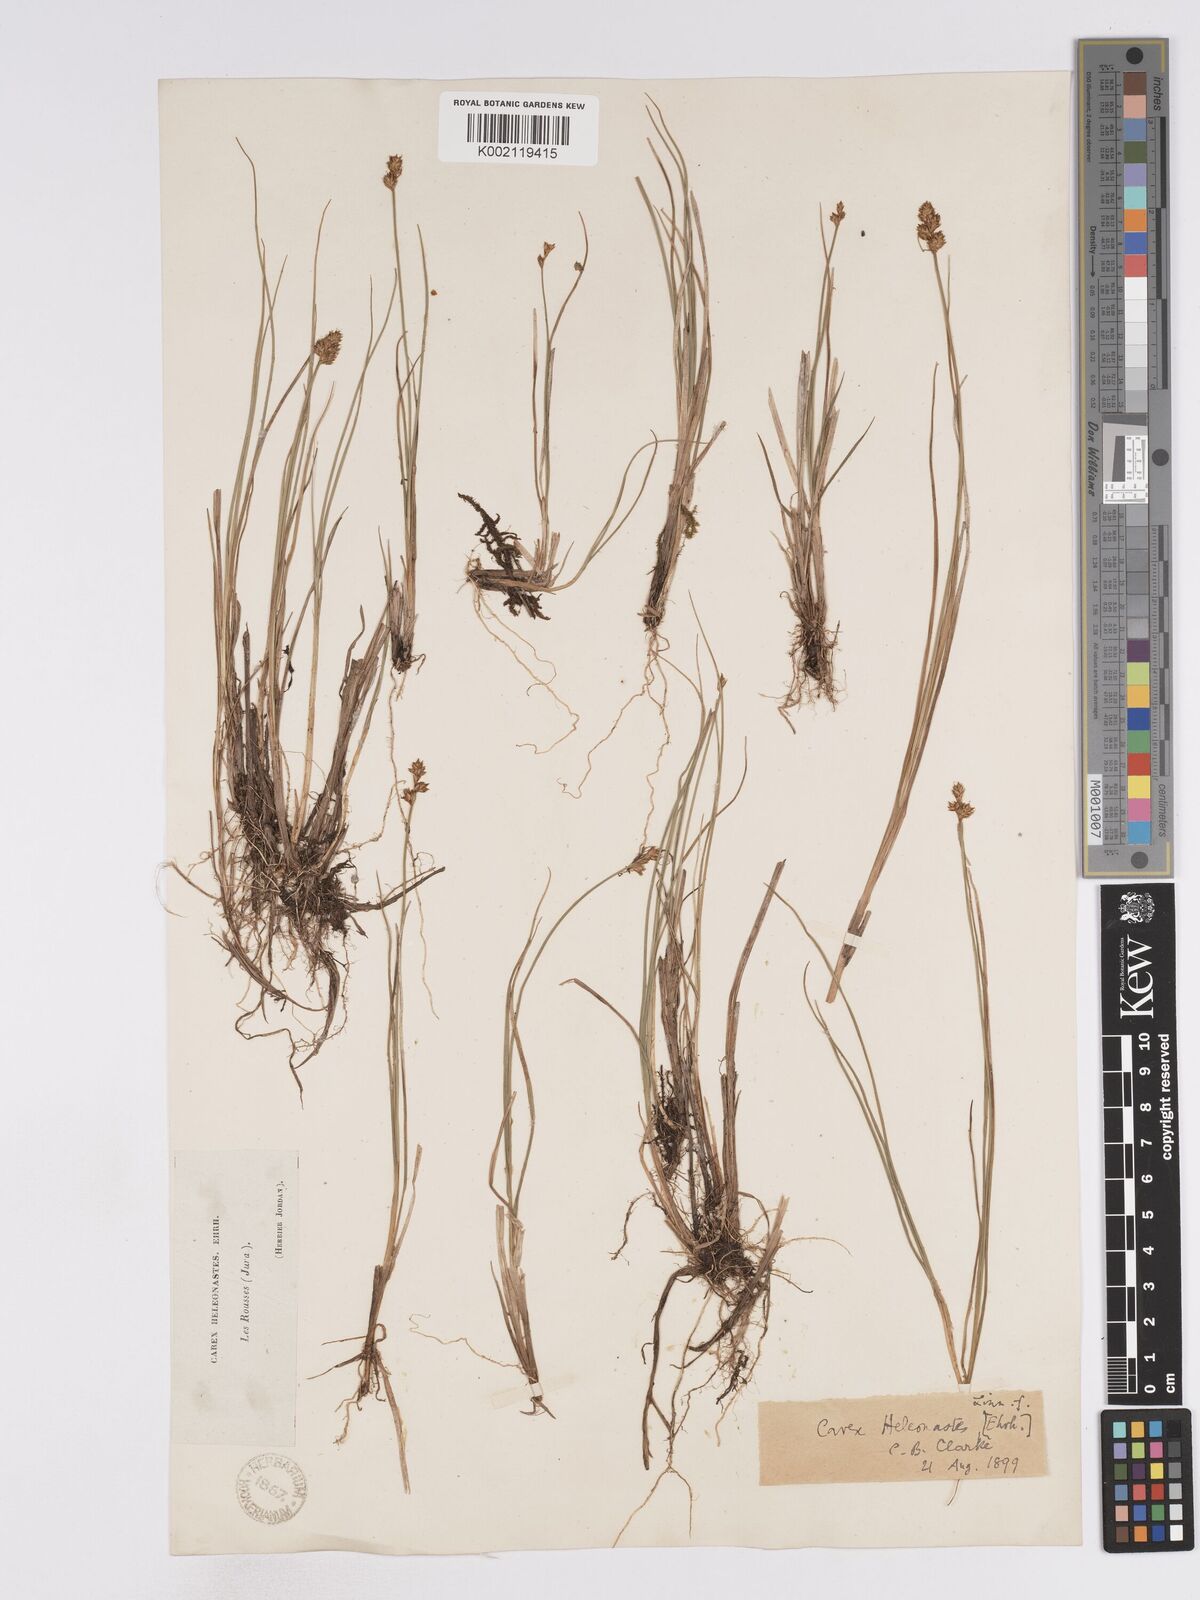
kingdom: Plantae
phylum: Tracheophyta
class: Liliopsida
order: Poales
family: Cyperaceae
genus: Carex
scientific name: Carex heleonastes
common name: Hudson bay sedge
